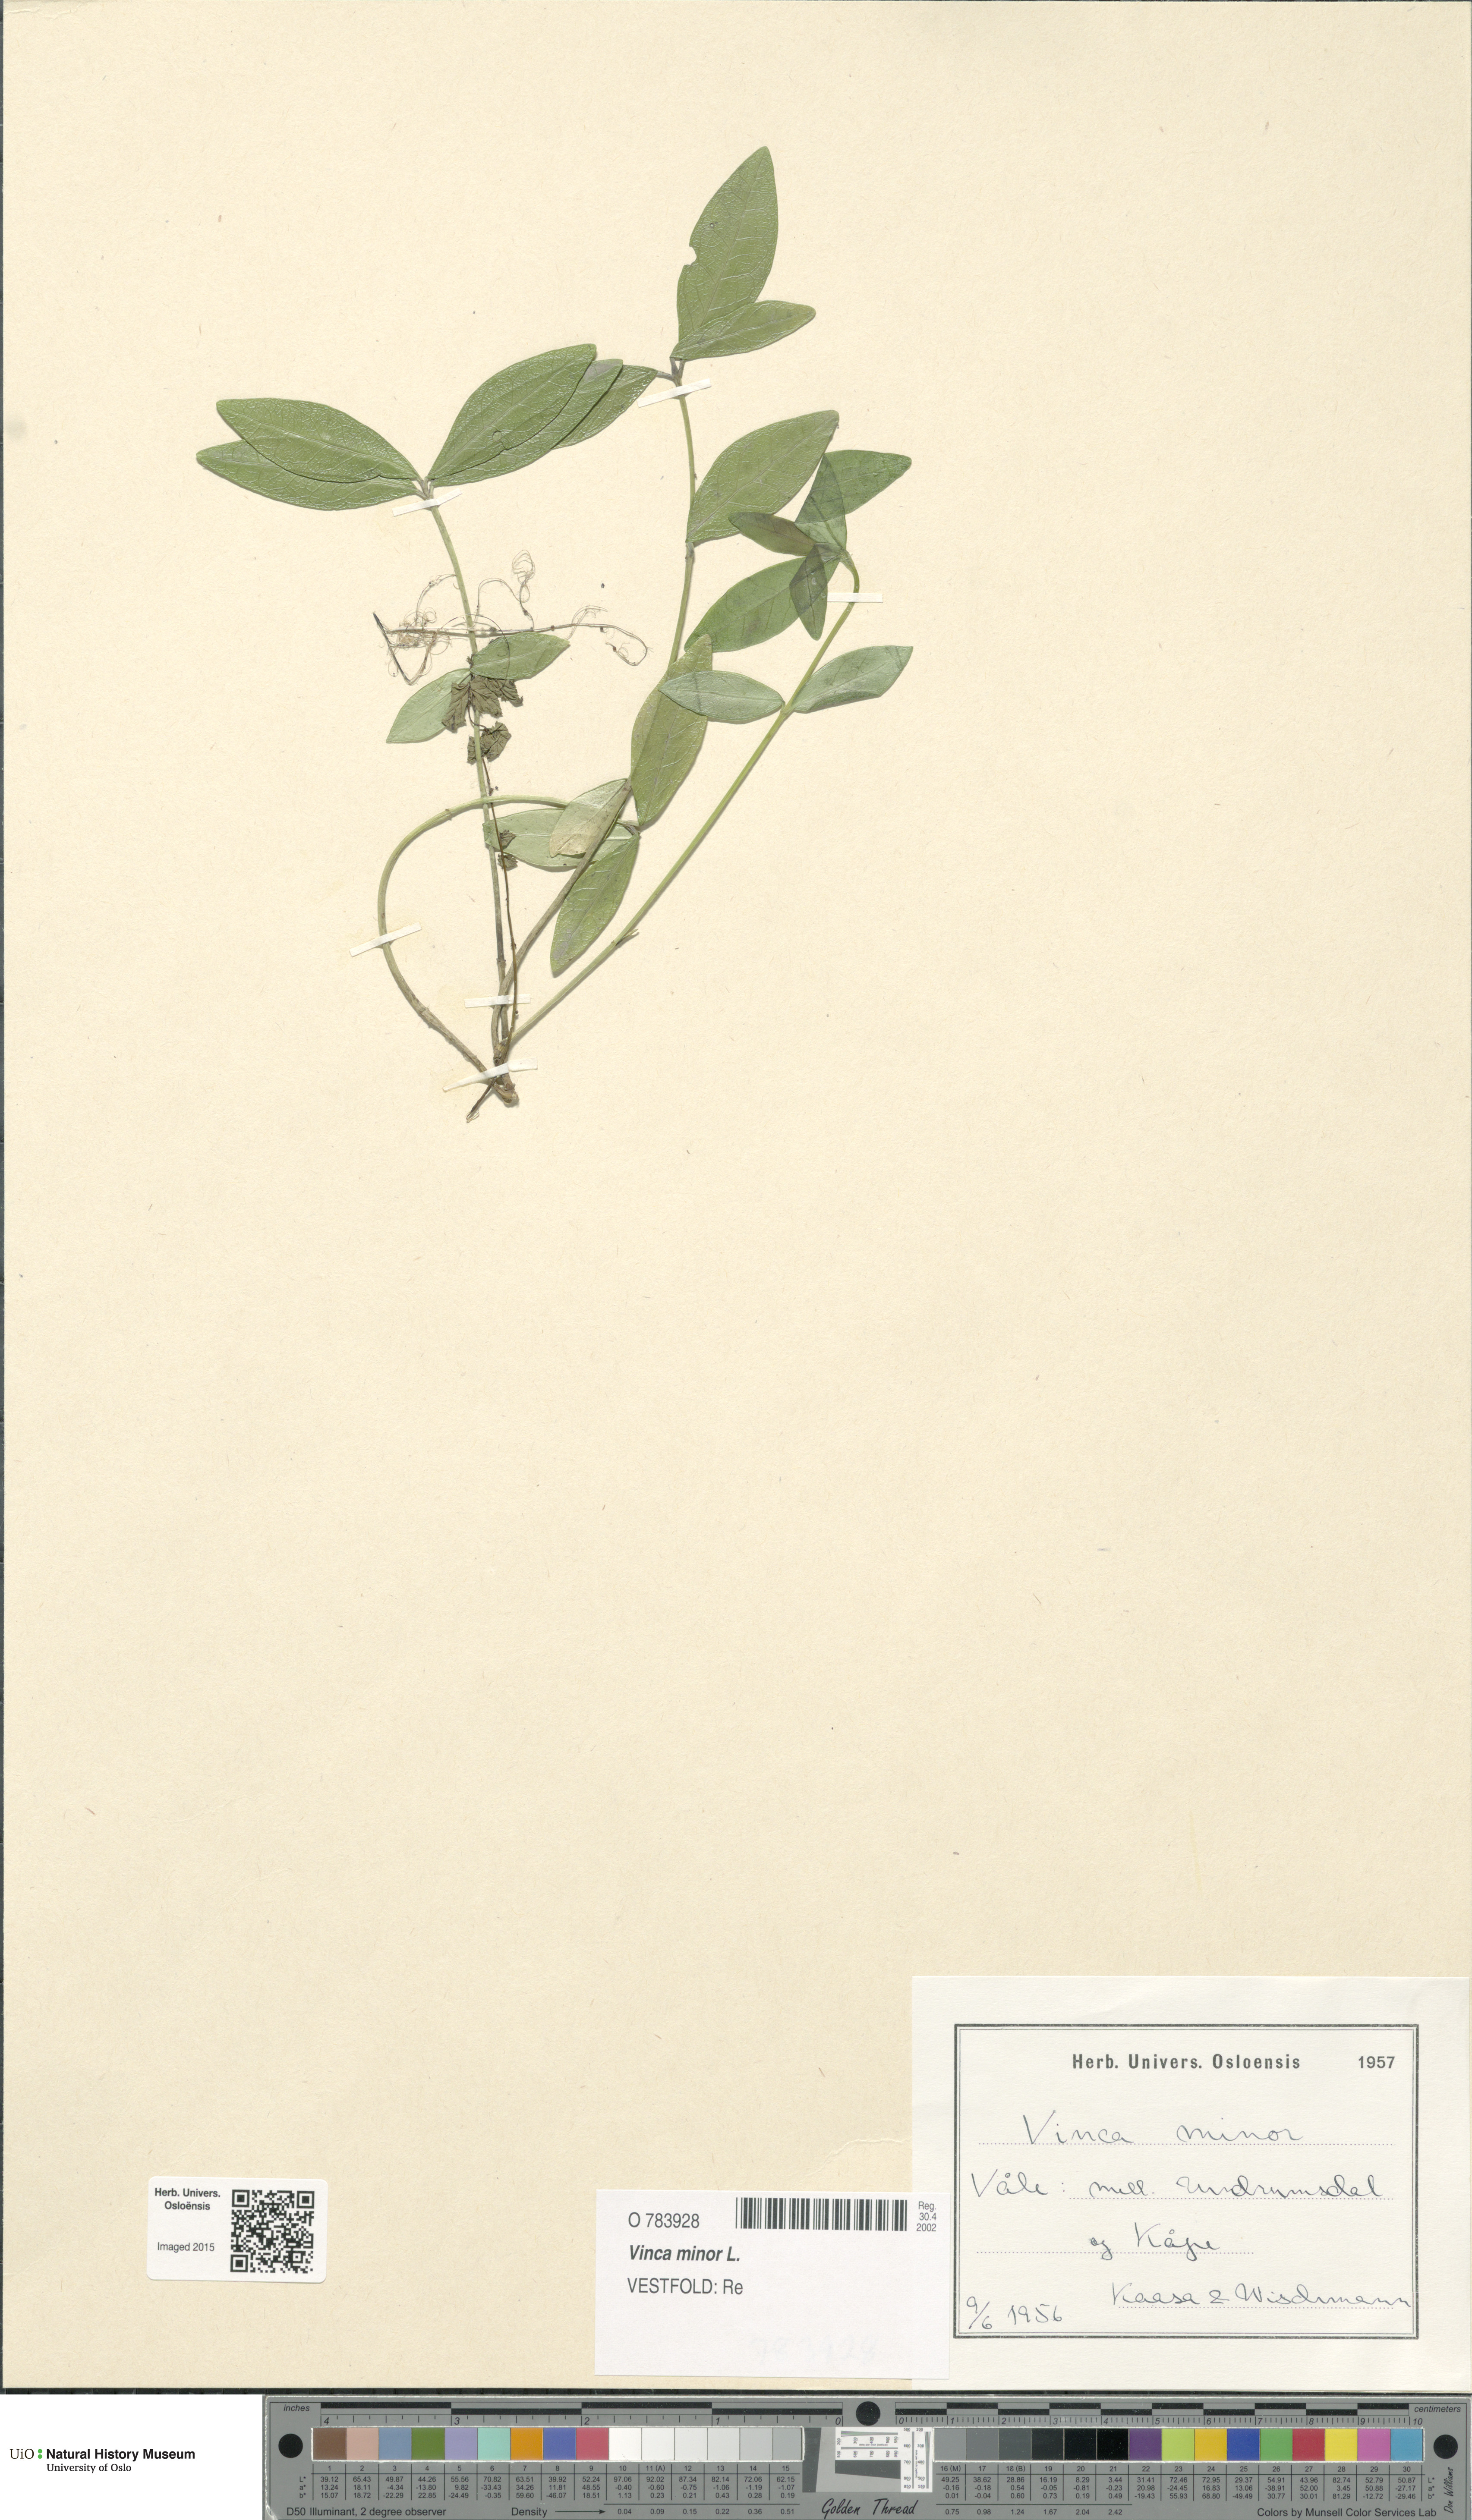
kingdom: Plantae
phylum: Tracheophyta
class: Magnoliopsida
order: Gentianales
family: Apocynaceae
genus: Vinca
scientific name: Vinca minor
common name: Lesser periwinkle
